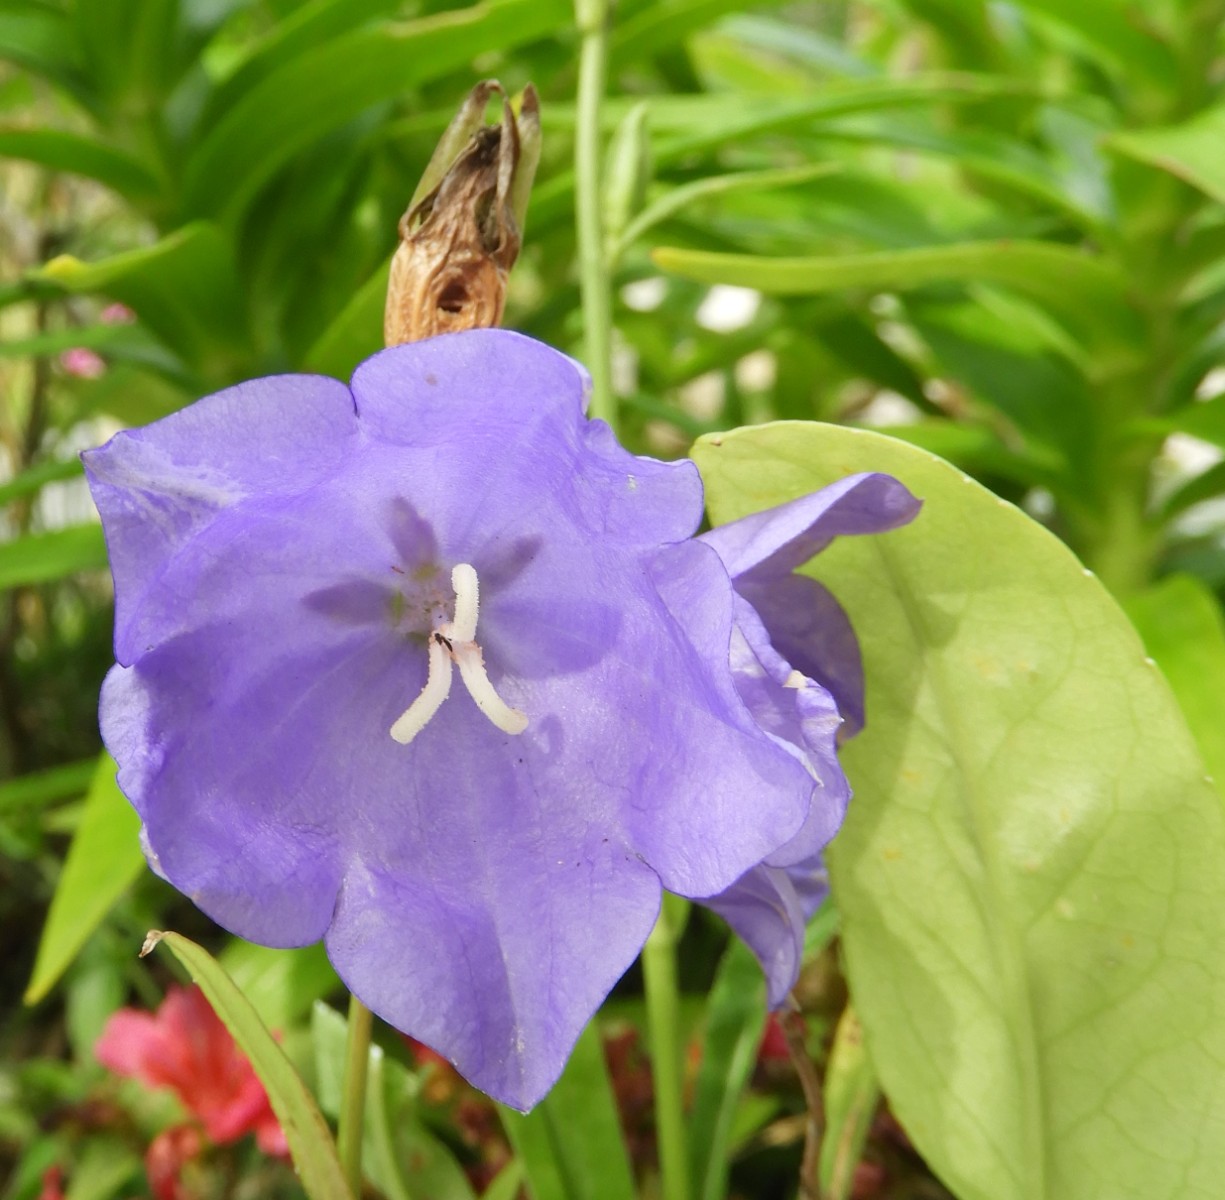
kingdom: Fungi
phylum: Basidiomycota
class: Pucciniomycetes
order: Pucciniales
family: Coleosporiaceae
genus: Coleosporium
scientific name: Coleosporium campanulae
